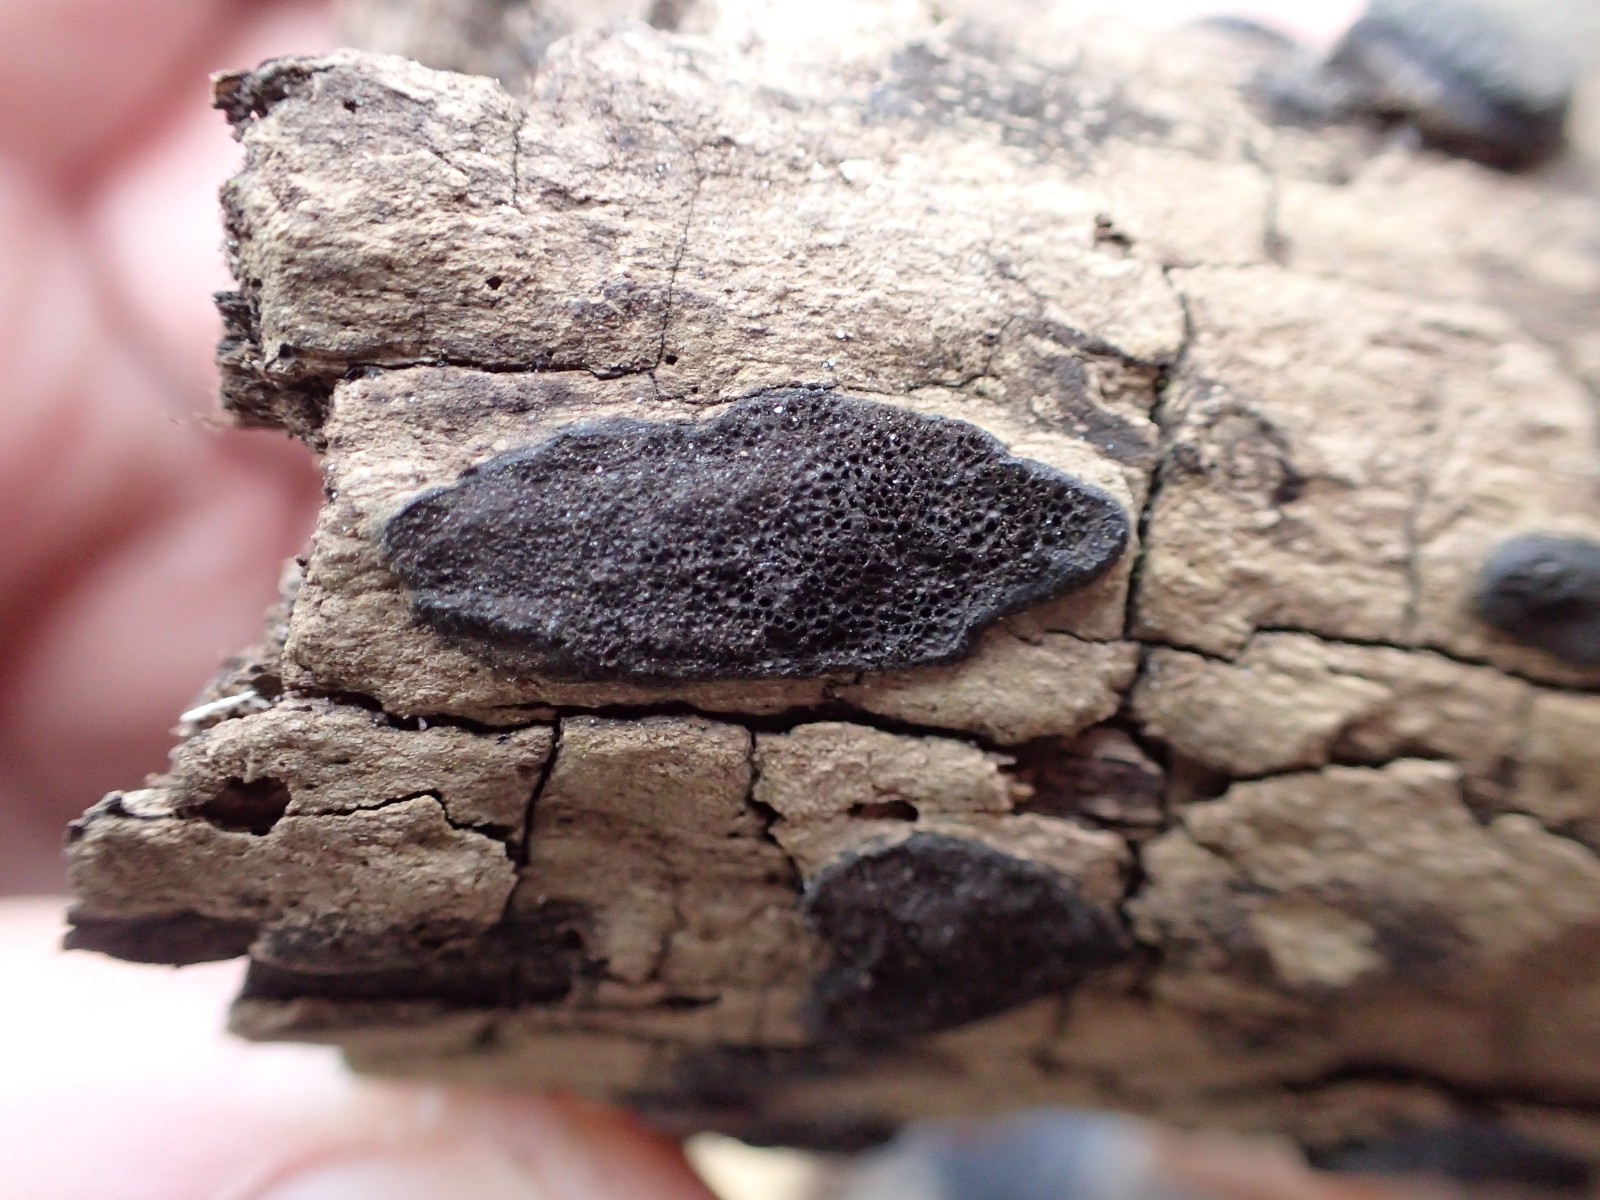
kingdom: Fungi
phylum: Ascomycota
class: Sordariomycetes
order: Xylariales
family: Hypoxylaceae
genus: Hypoxylon
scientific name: Hypoxylon petriniae
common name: nedsænket kulbær
